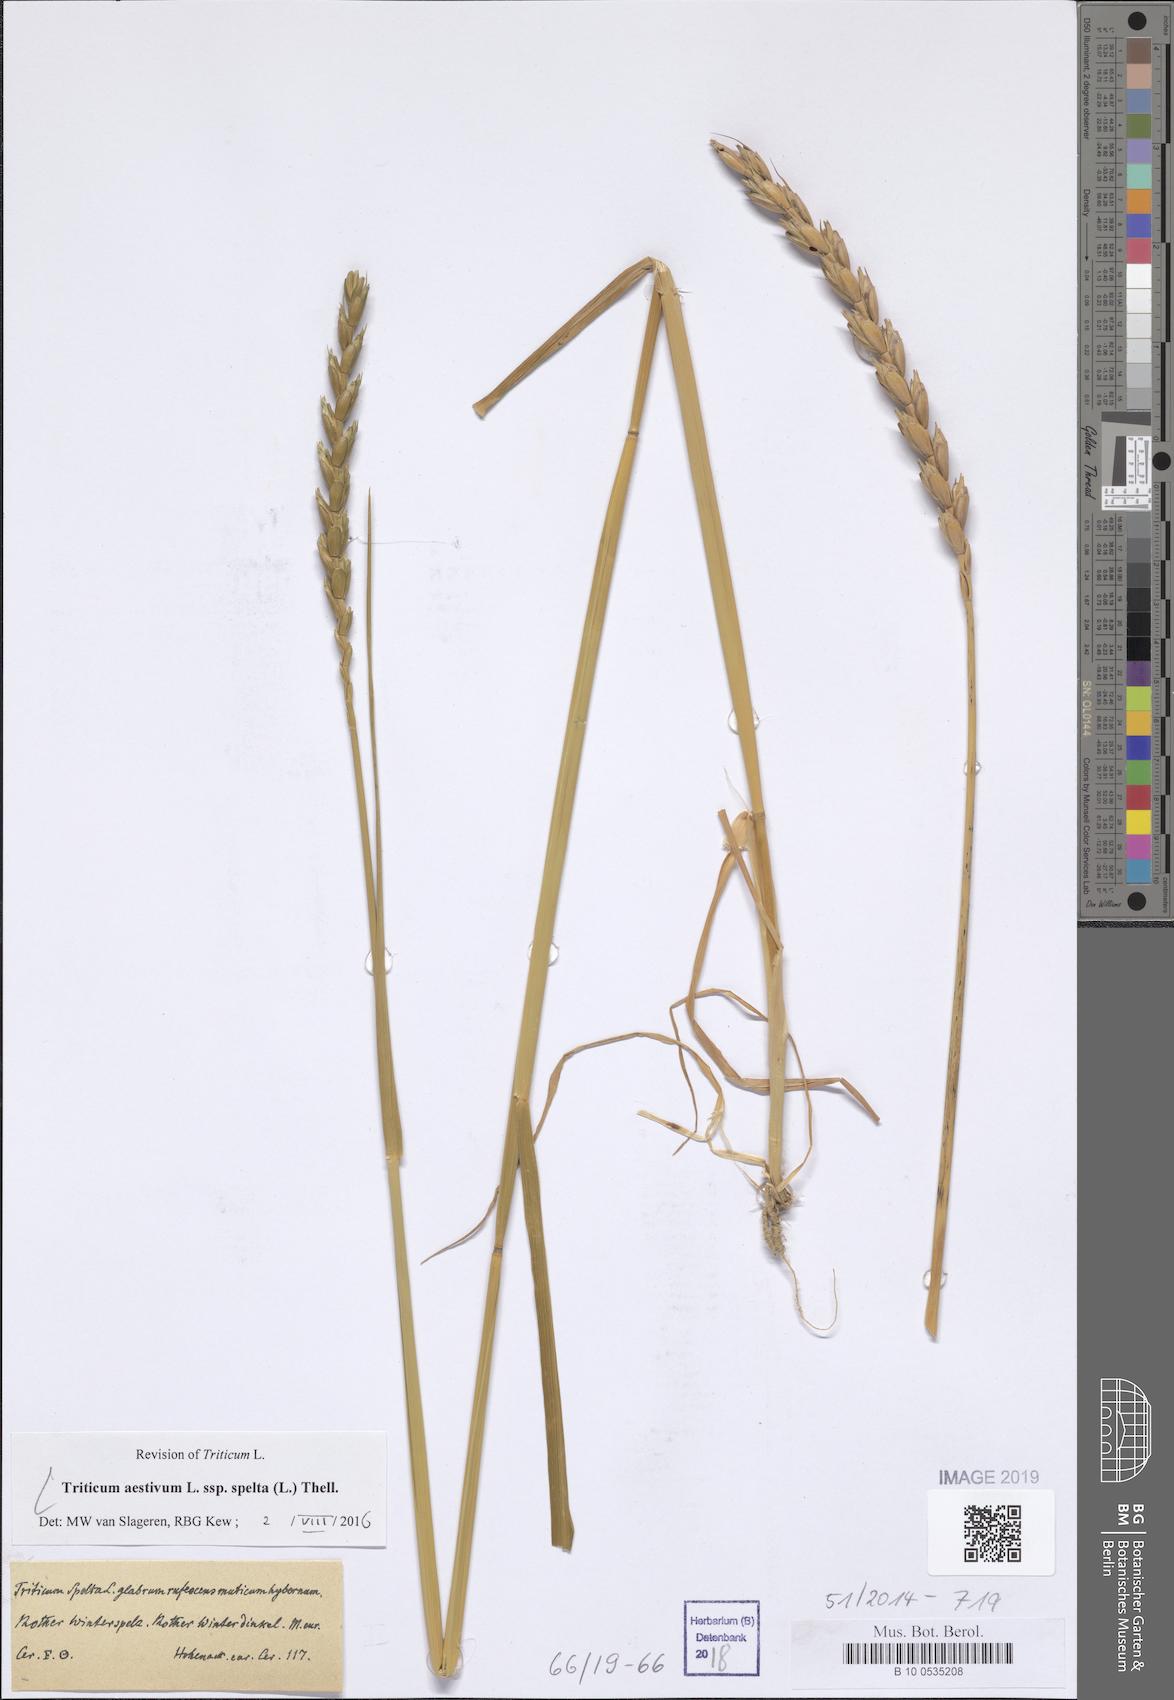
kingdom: Plantae
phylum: Tracheophyta
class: Liliopsida
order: Poales
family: Poaceae
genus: Triticum
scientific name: Triticum aestivum
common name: Common wheat
